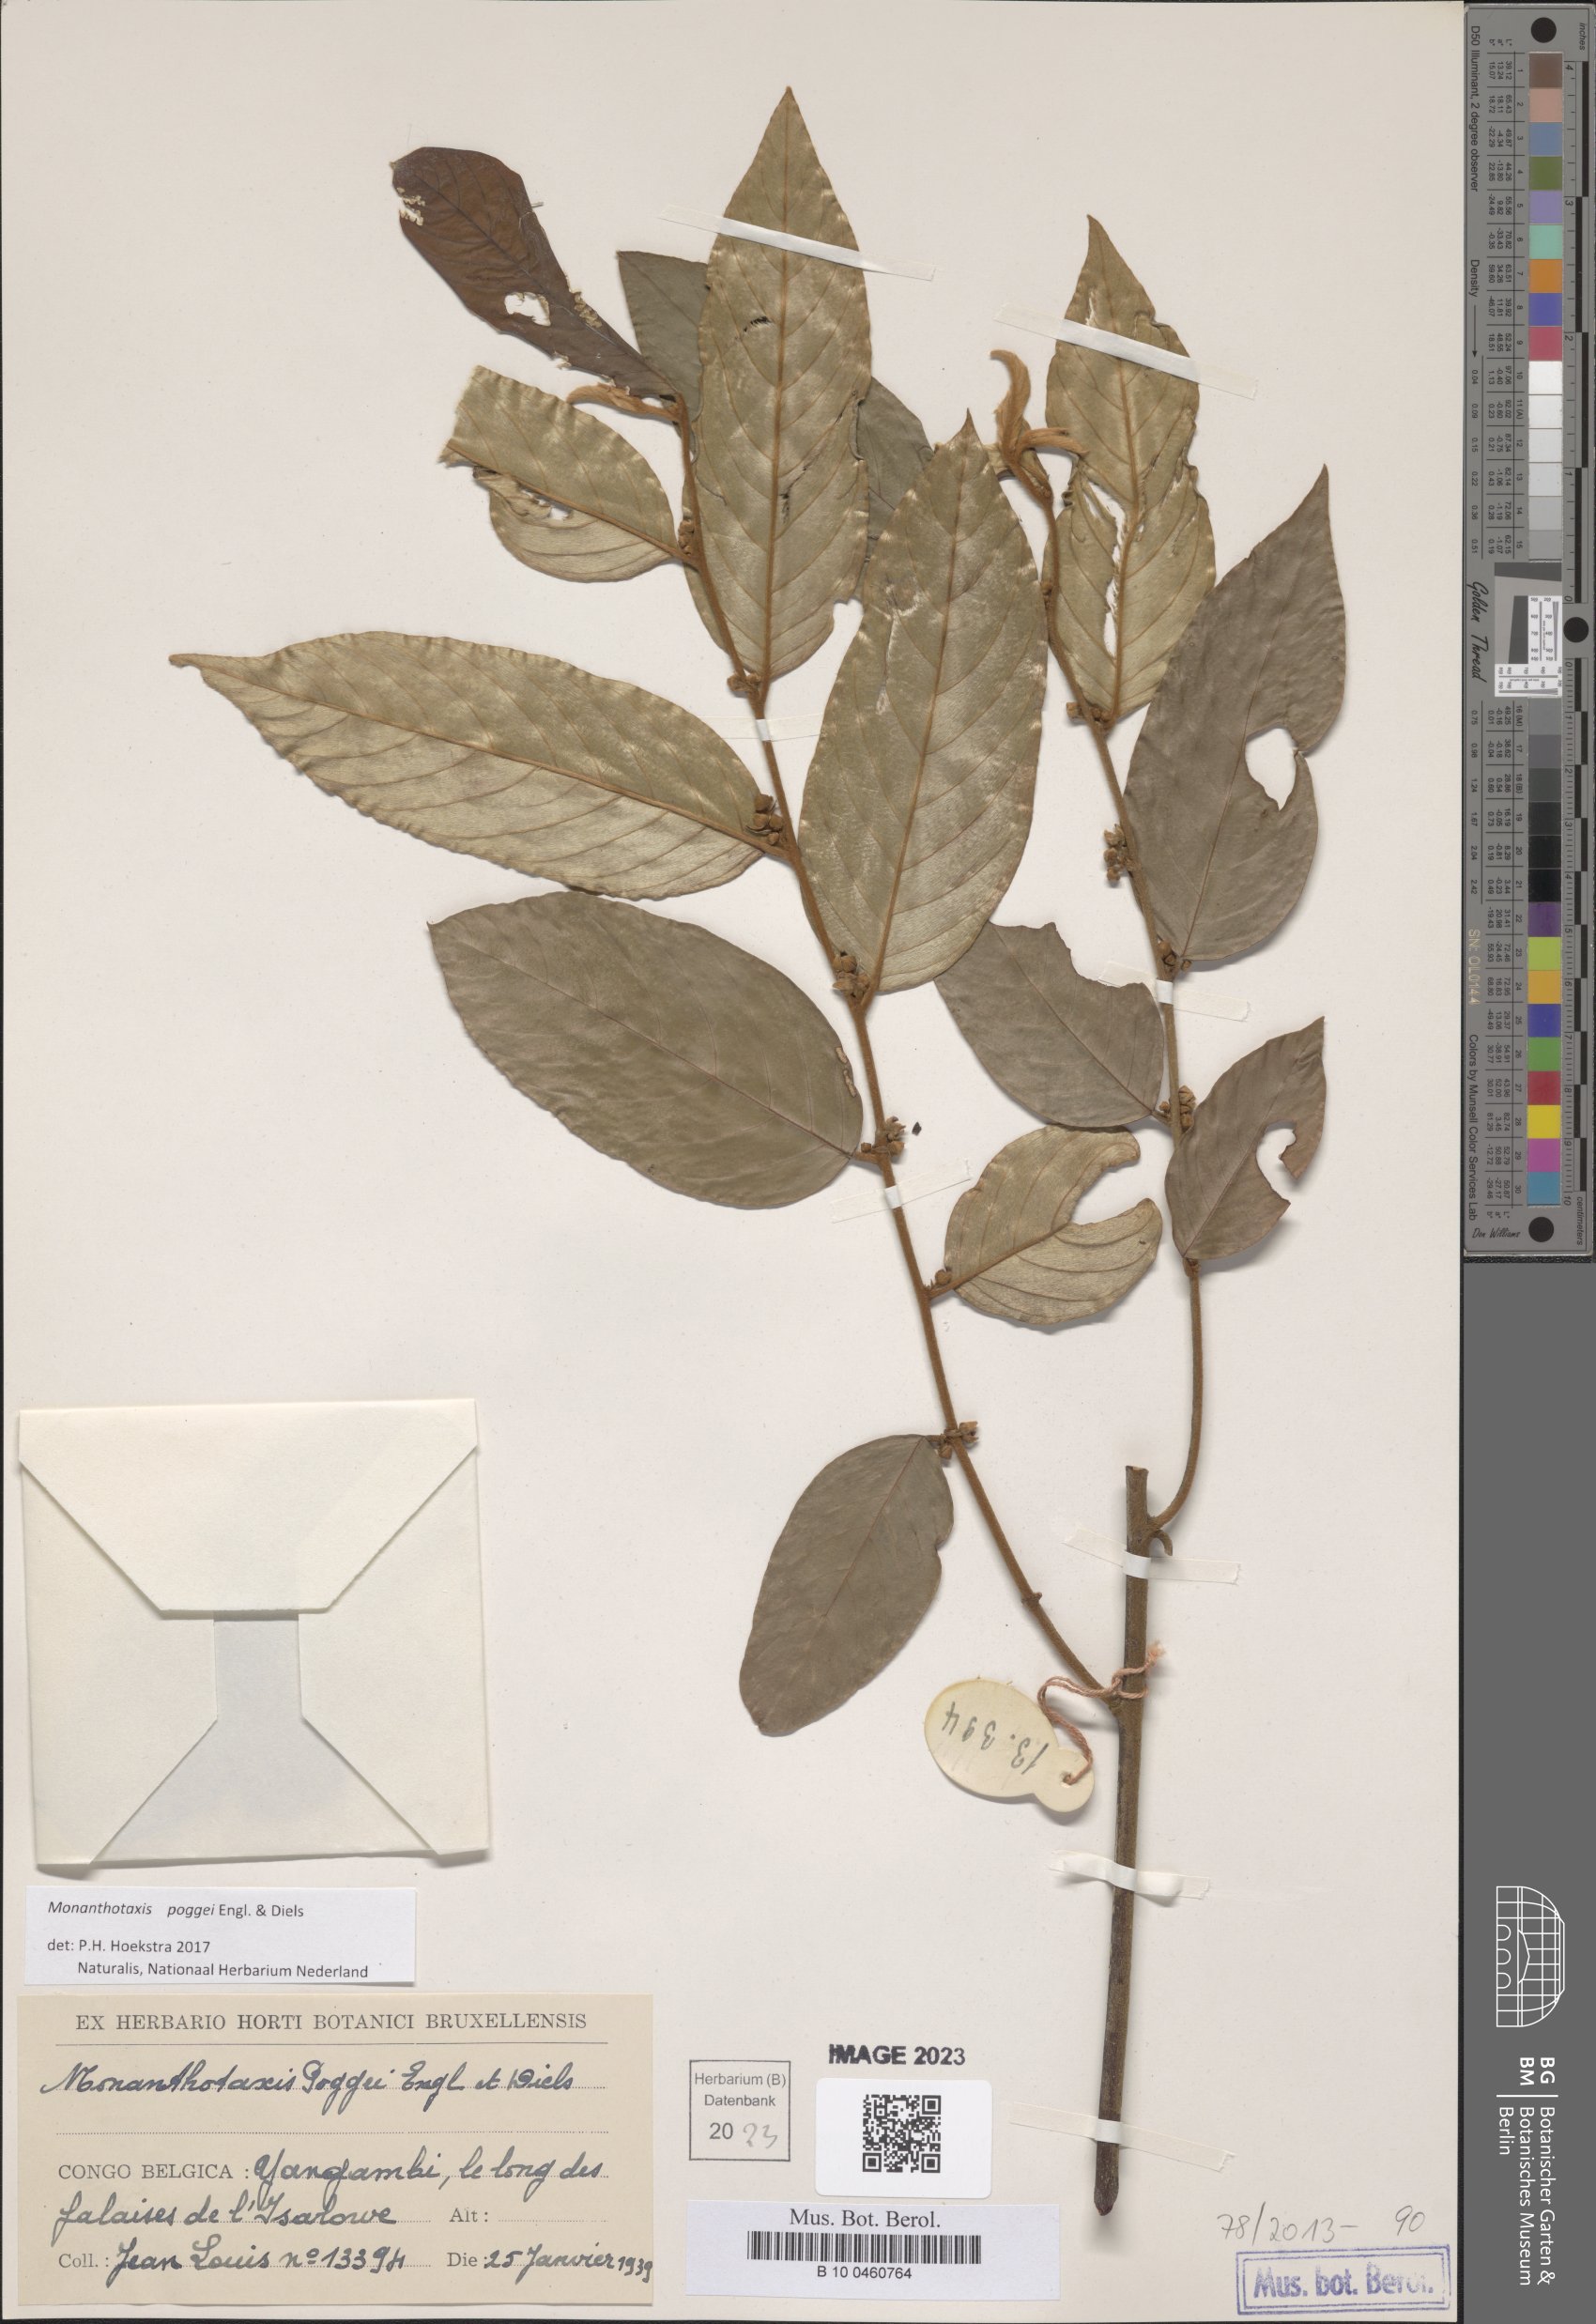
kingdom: Plantae
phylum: Tracheophyta
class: Magnoliopsida
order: Magnoliales
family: Annonaceae
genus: Monanthotaxis
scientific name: Monanthotaxis poggei
